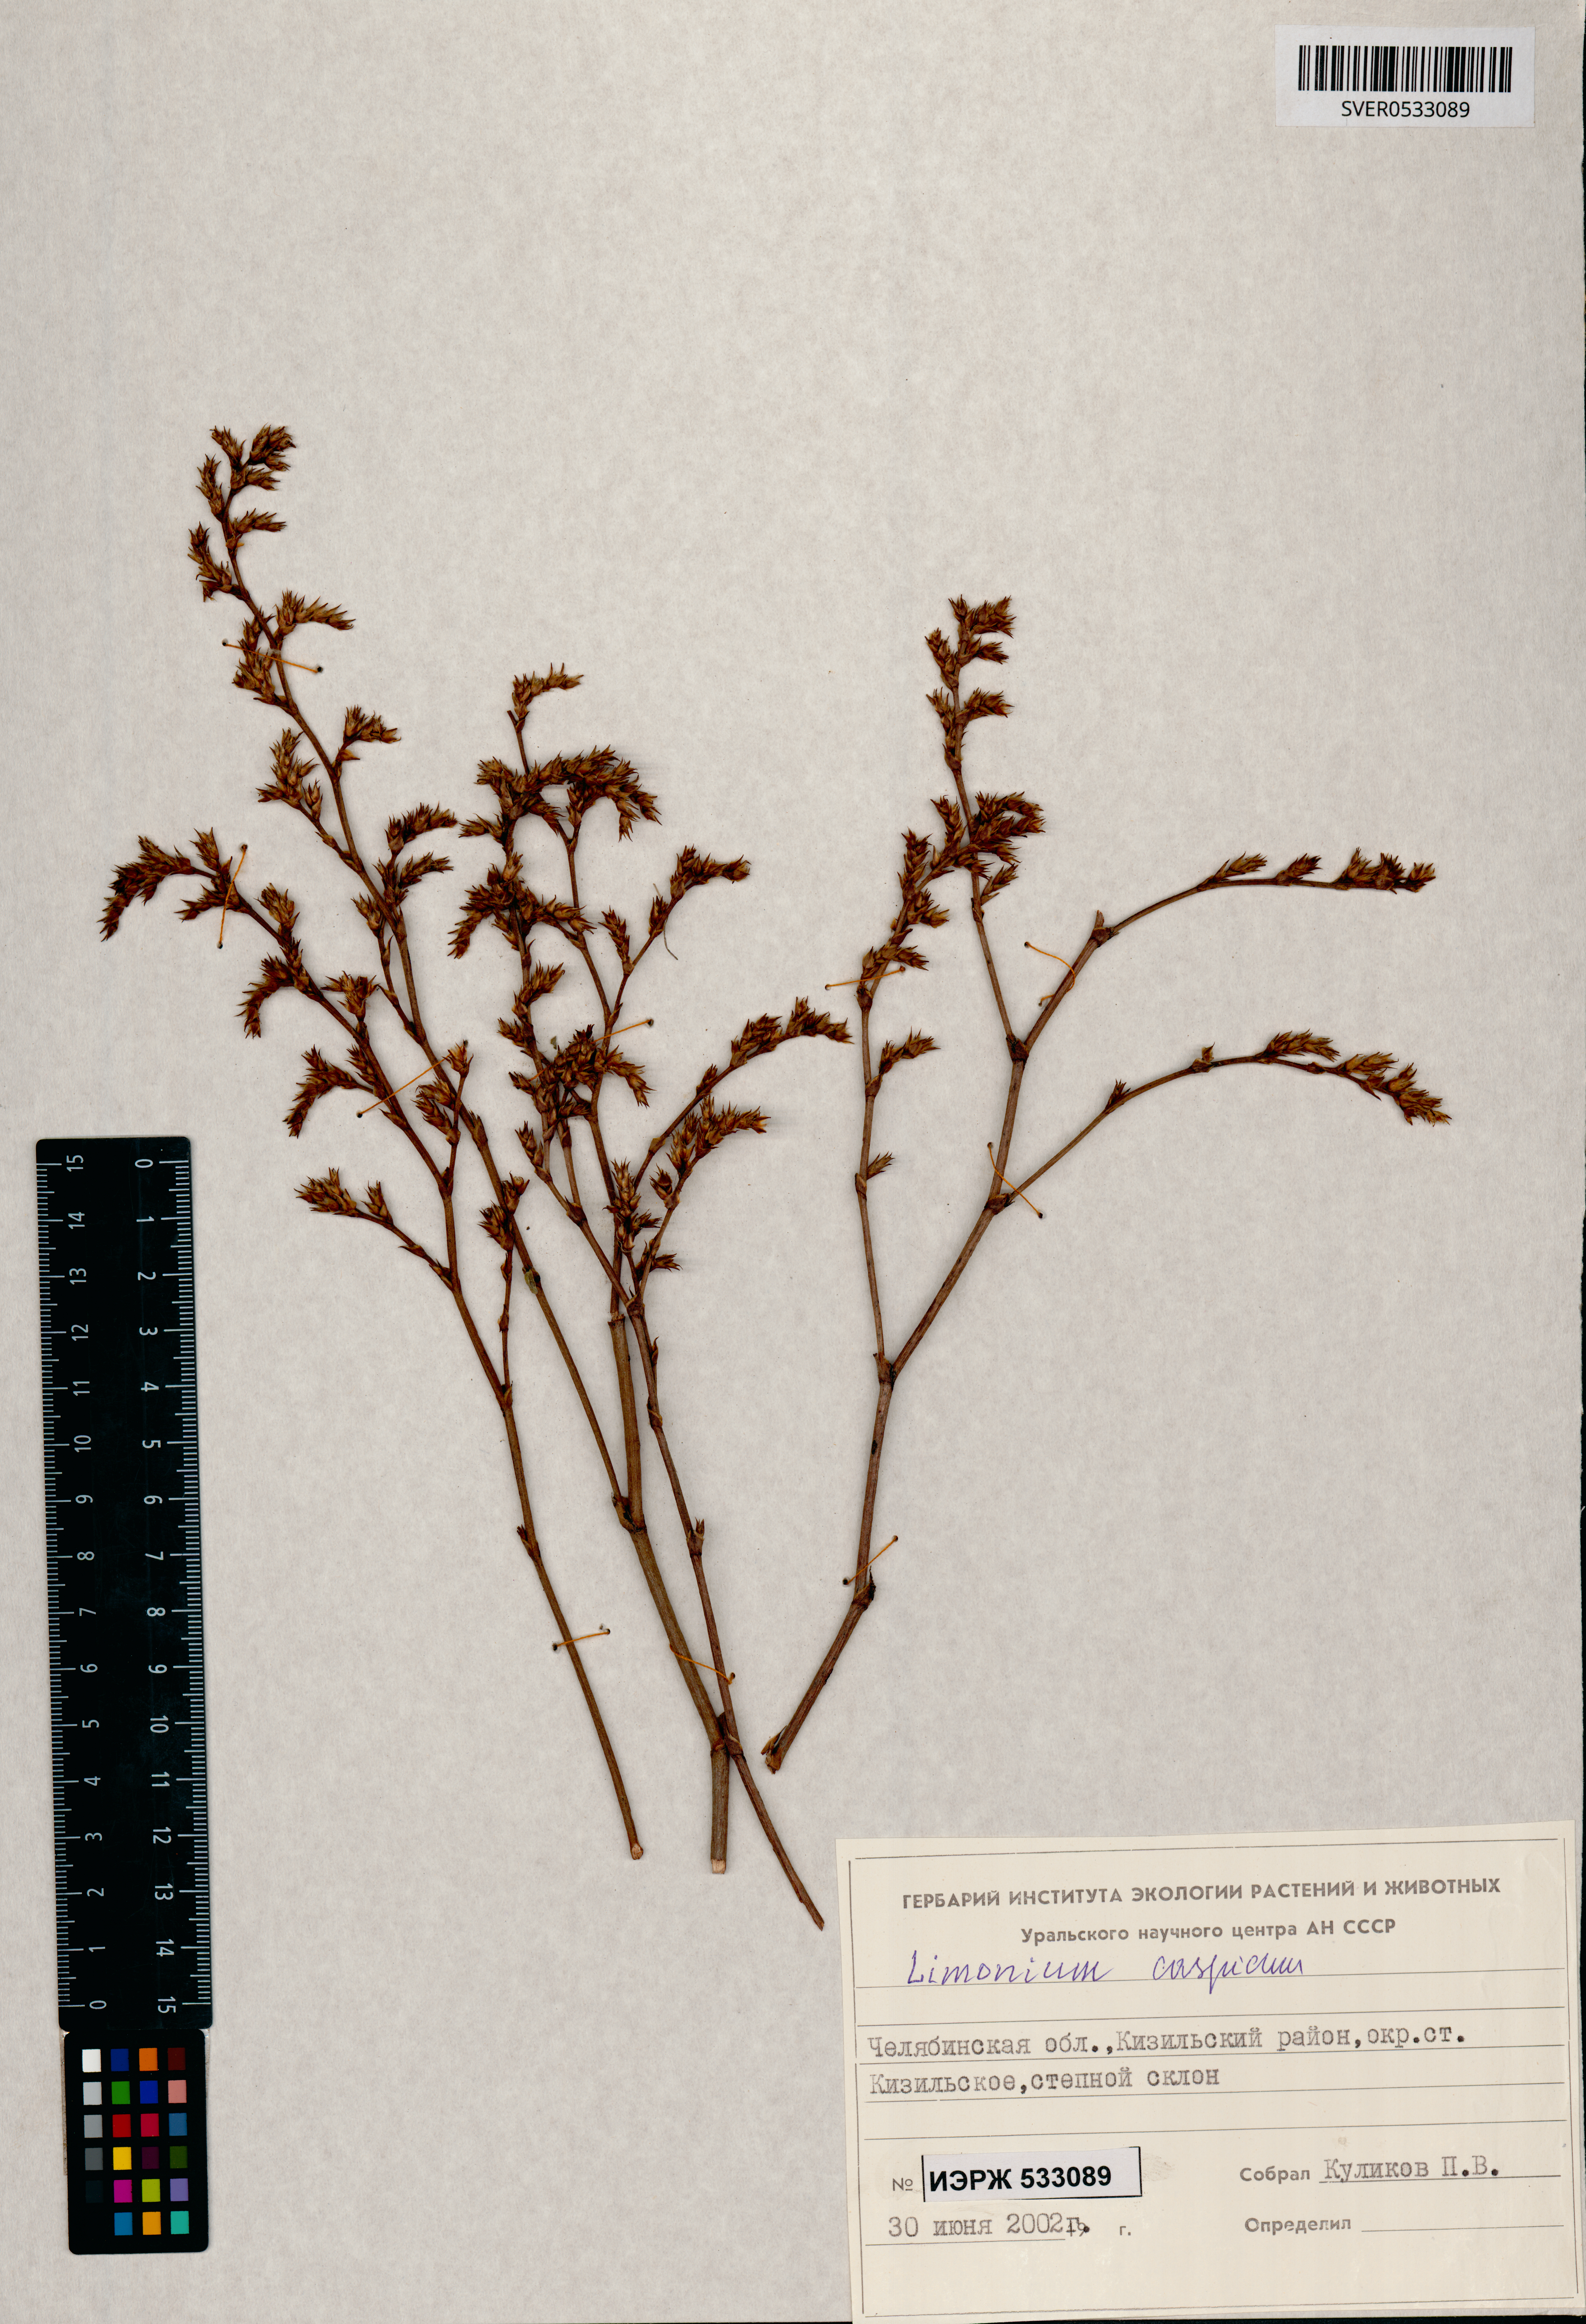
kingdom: Plantae
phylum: Tracheophyta
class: Magnoliopsida
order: Caryophyllales
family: Plumbaginaceae
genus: Limonium
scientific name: Limonium bellidifolium
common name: Matted sea-lavender
